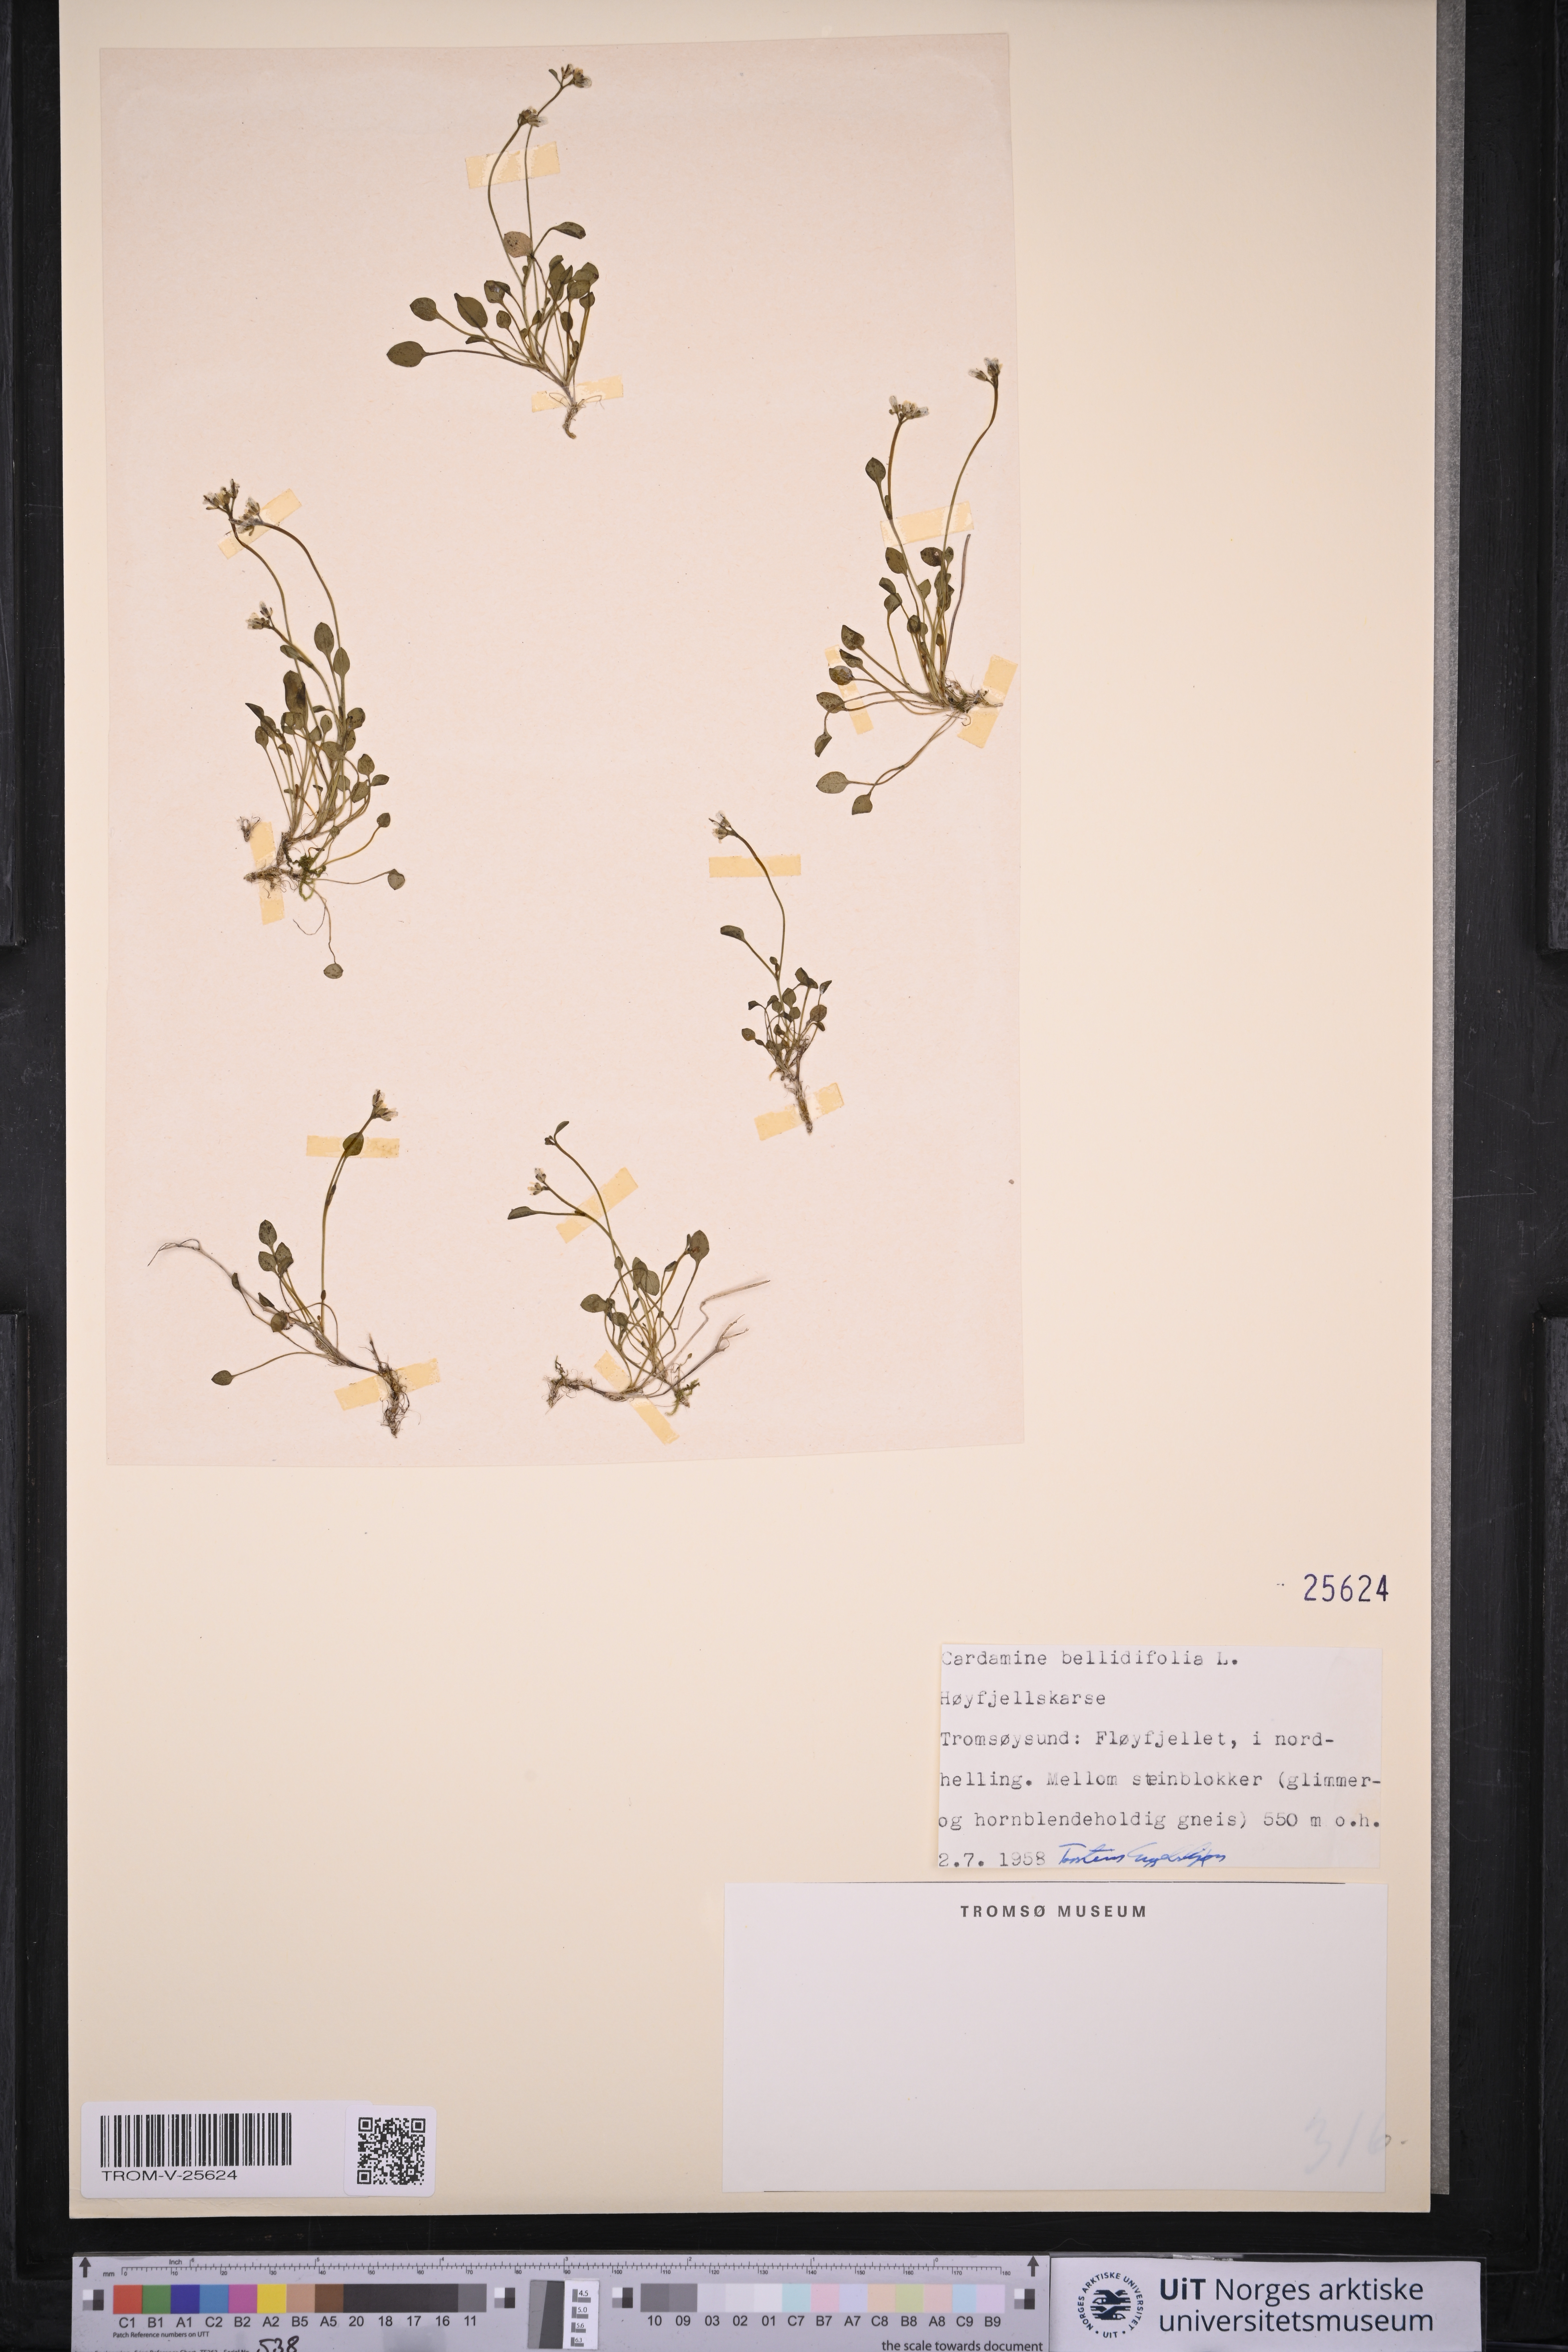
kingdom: Plantae
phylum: Tracheophyta
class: Magnoliopsida
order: Brassicales
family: Brassicaceae
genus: Cardamine
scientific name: Cardamine bellidifolia
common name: Alpine bittercress
